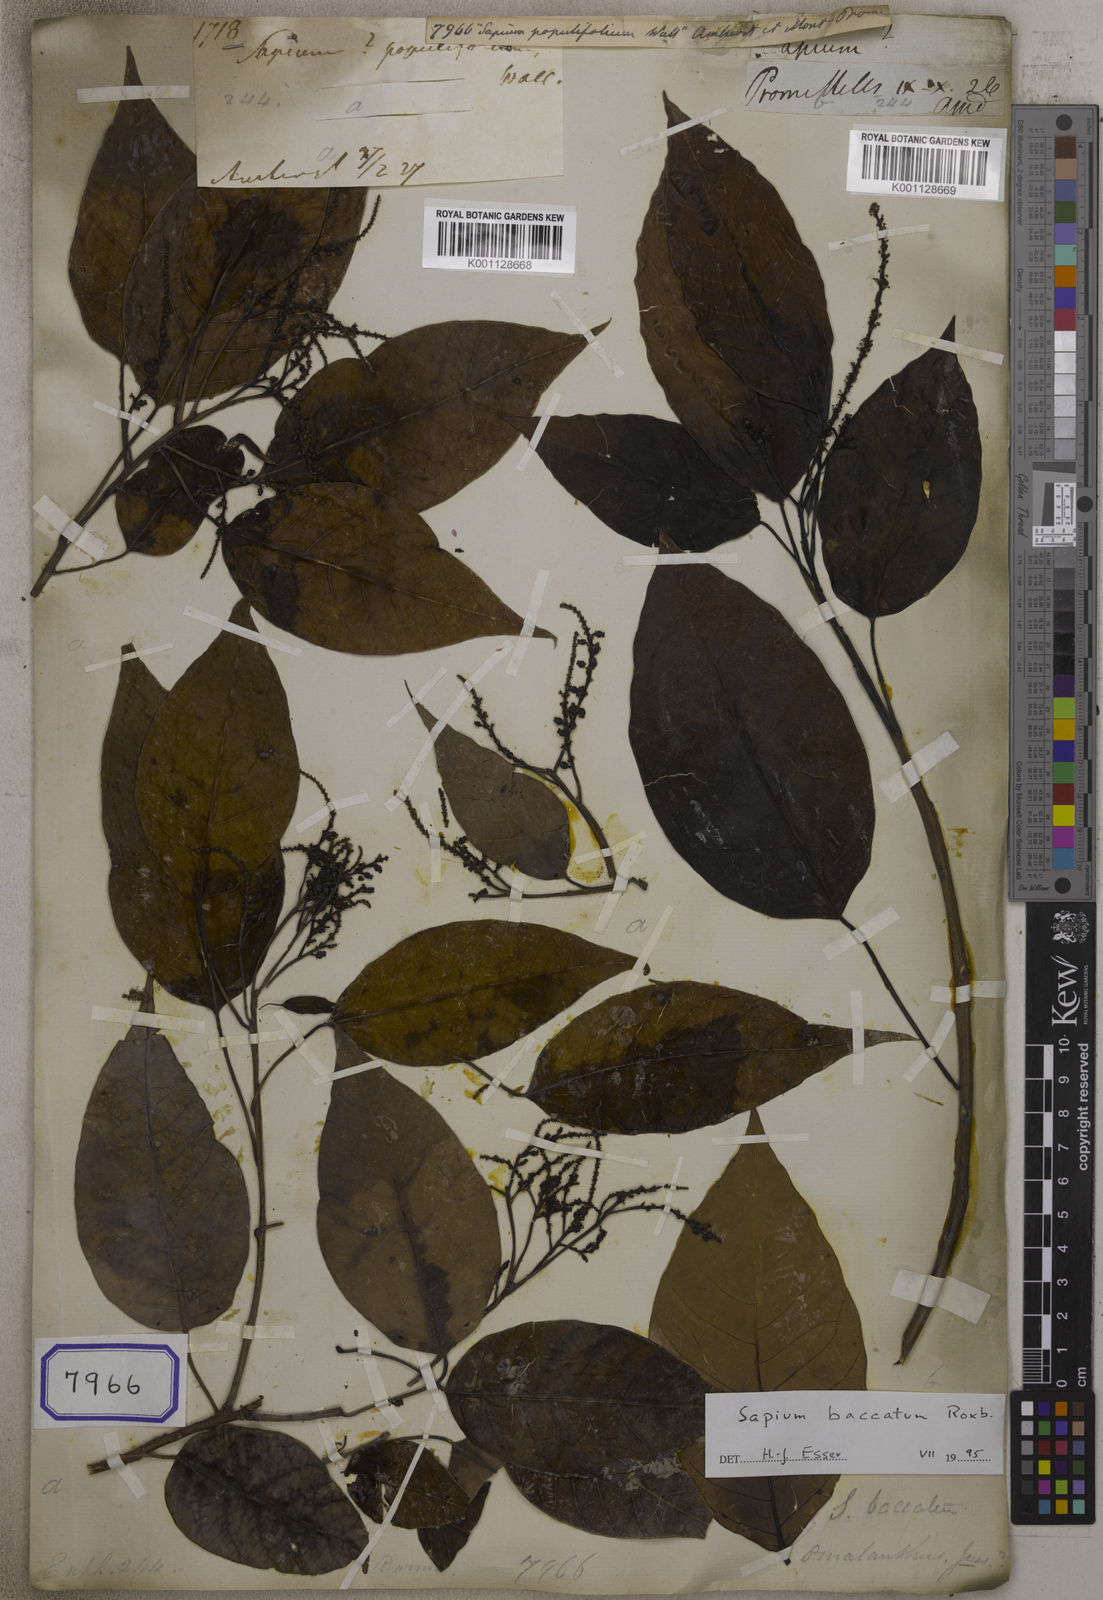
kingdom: Plantae
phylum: Tracheophyta
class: Magnoliopsida
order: Malpighiales
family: Euphorbiaceae
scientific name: Euphorbiaceae
